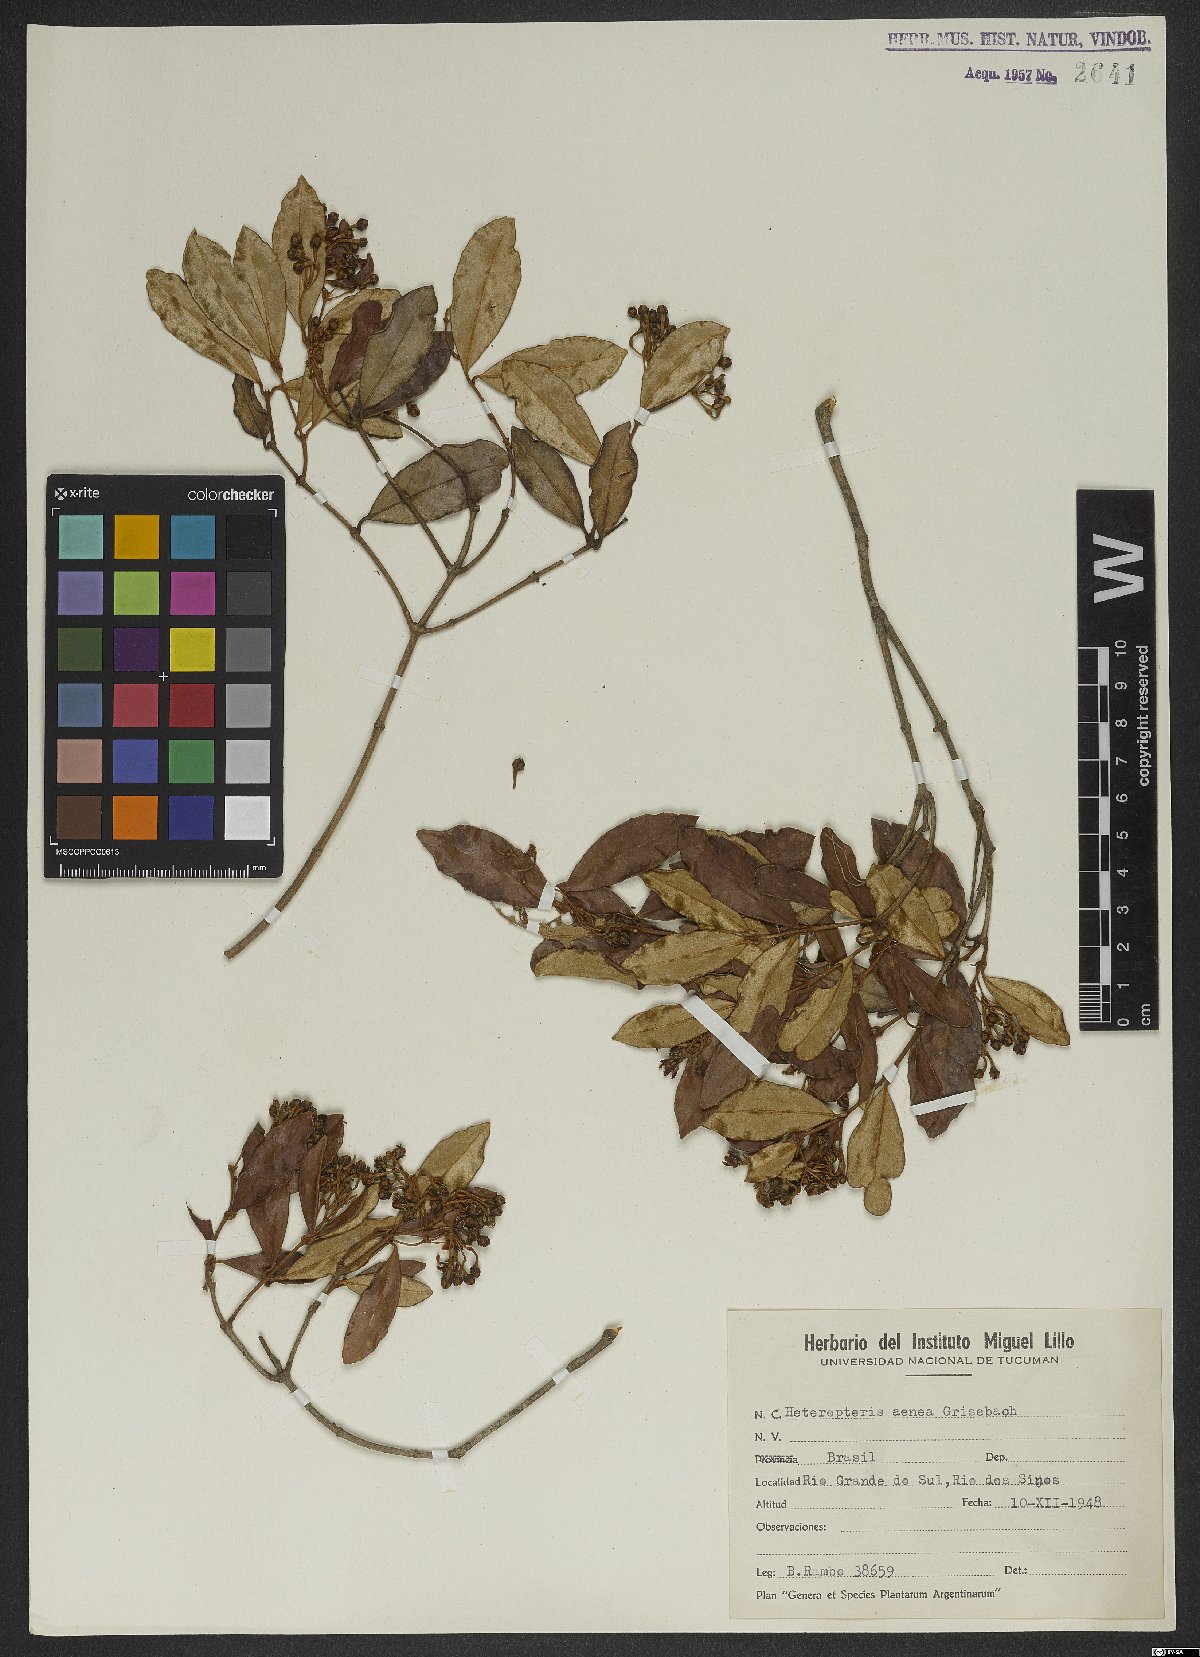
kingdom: Plantae
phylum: Tracheophyta
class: Magnoliopsida
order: Malpighiales
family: Malpighiaceae
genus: Heteropterys
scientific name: Heteropterys aenea
